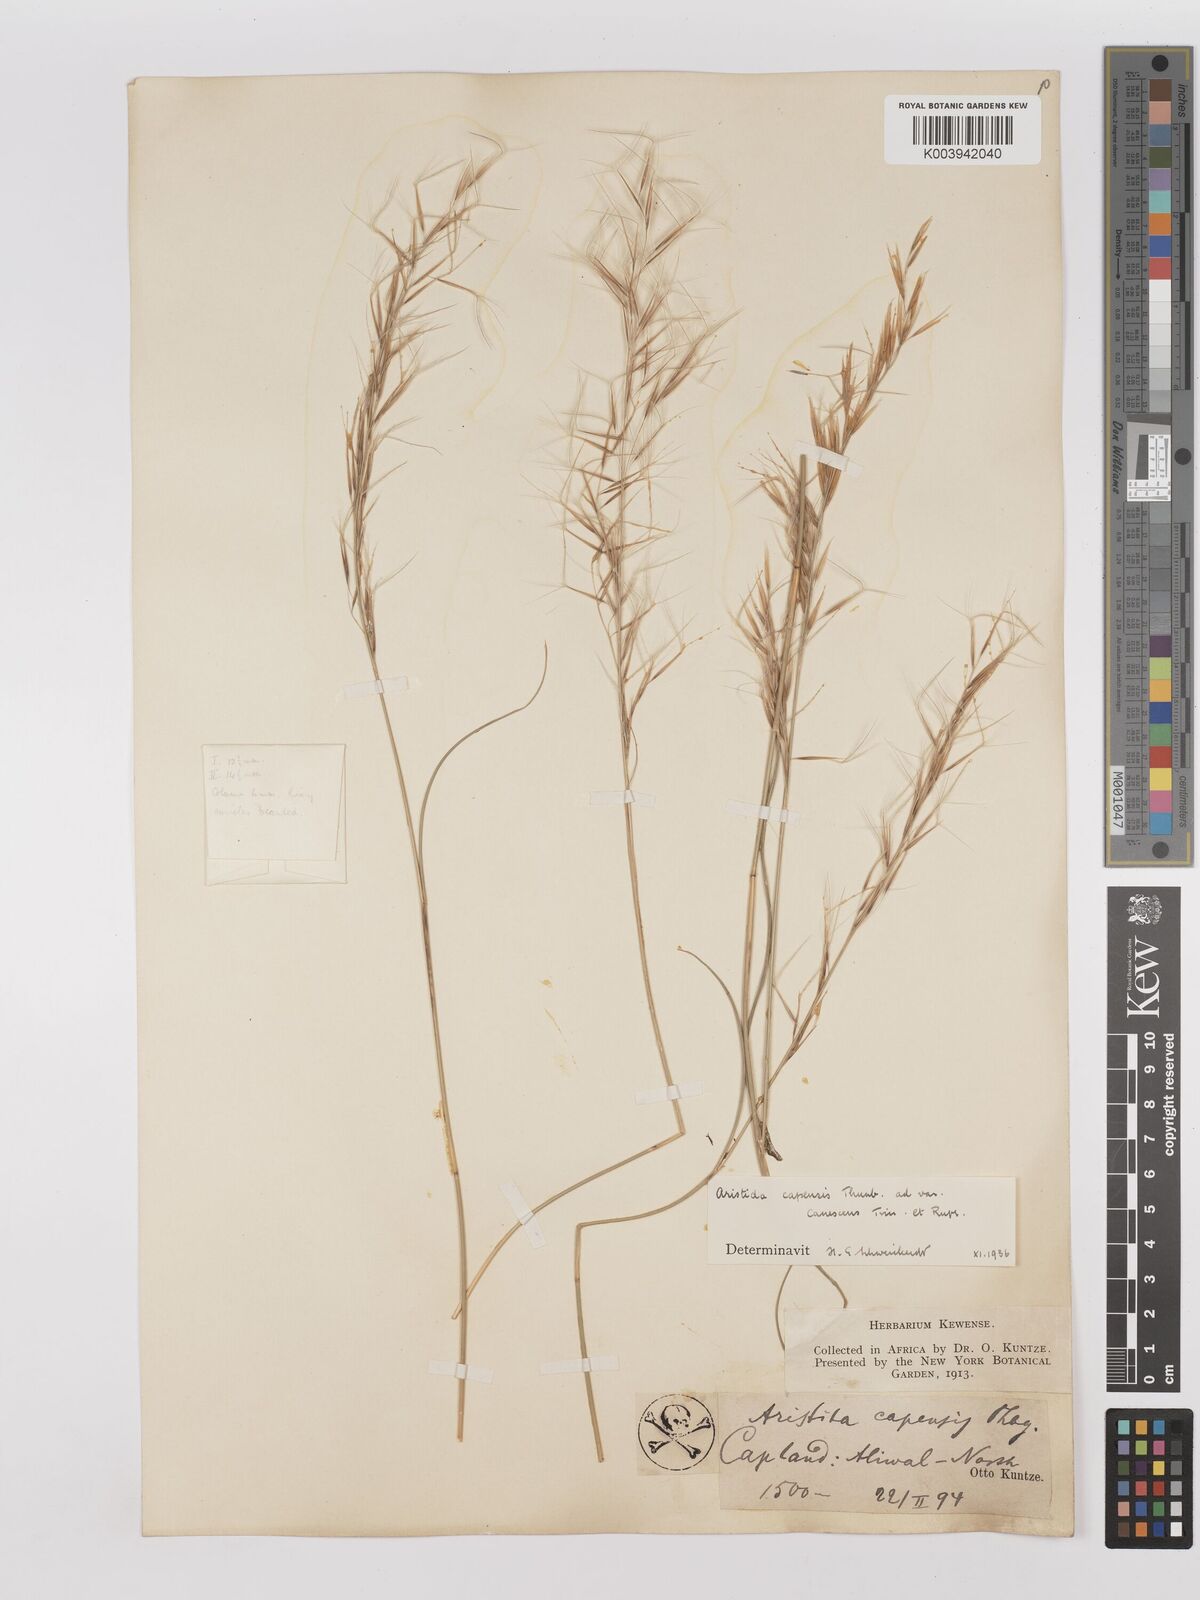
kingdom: Plantae
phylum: Tracheophyta
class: Liliopsida
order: Poales
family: Poaceae
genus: Stipagrostis
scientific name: Stipagrostis zeyheri
